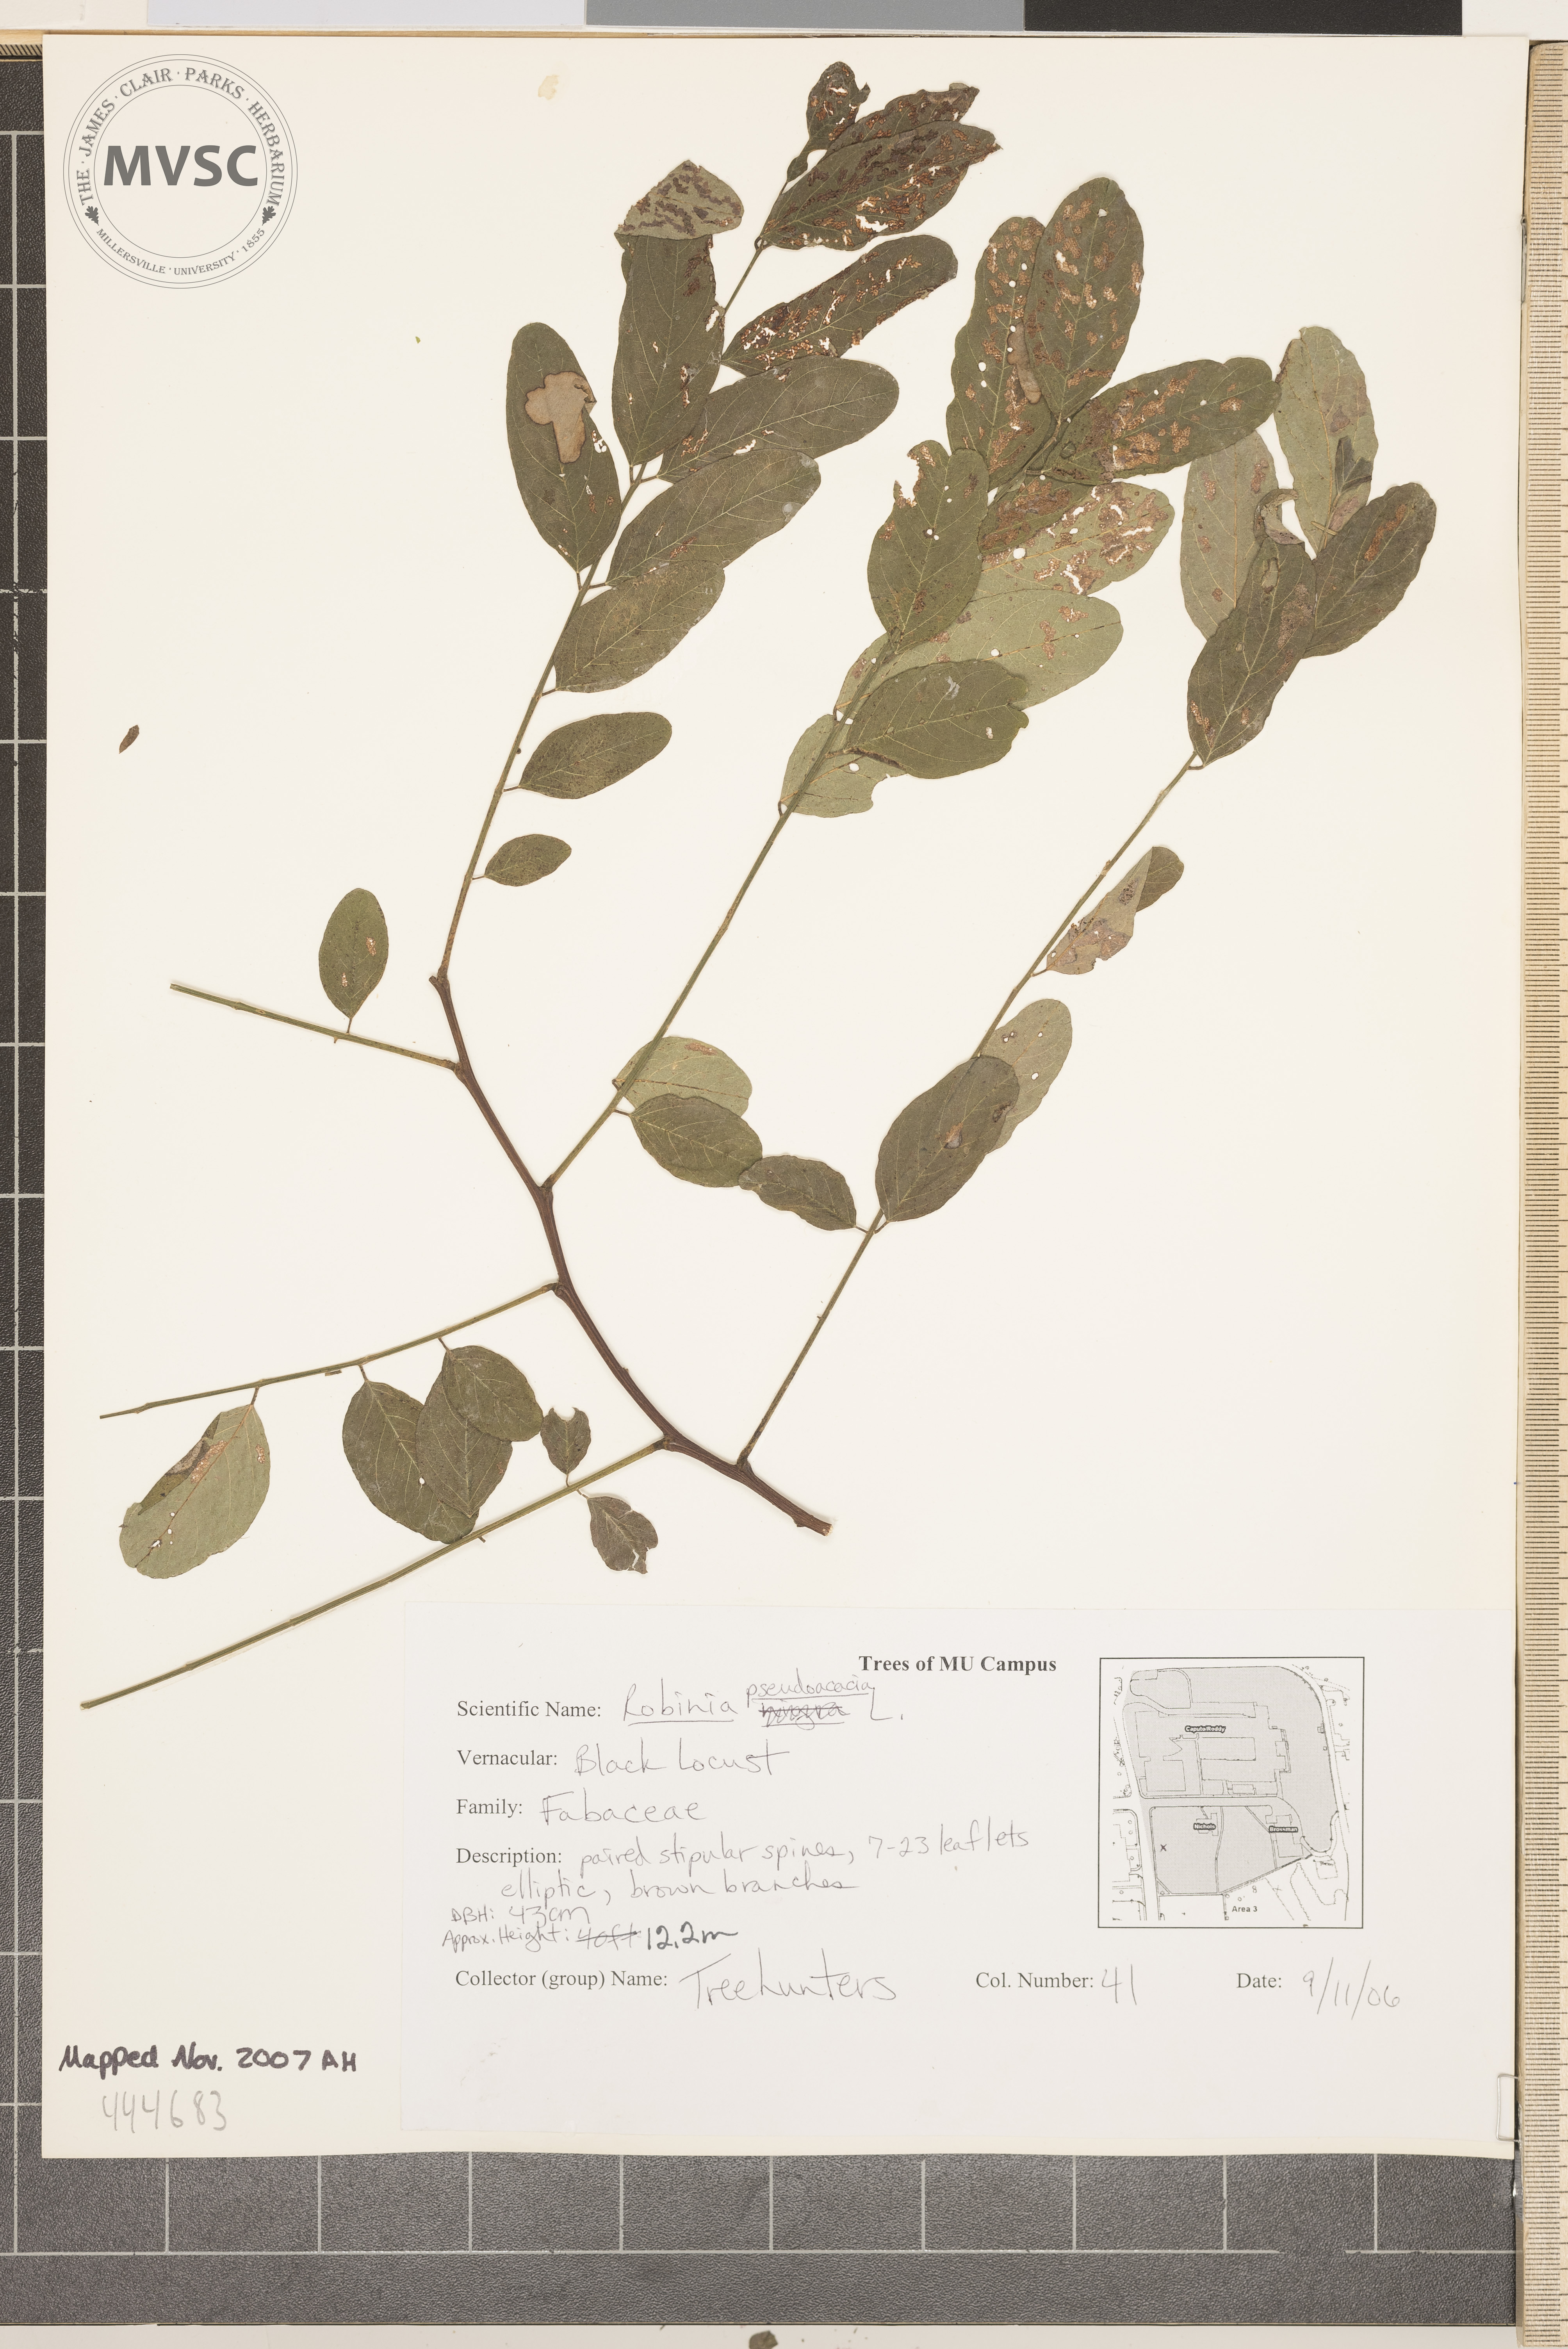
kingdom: Plantae
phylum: Tracheophyta
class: Magnoliopsida
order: Fabales
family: Fabaceae
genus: Robinia
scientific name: Robinia pseudoacacia
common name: Black locust
